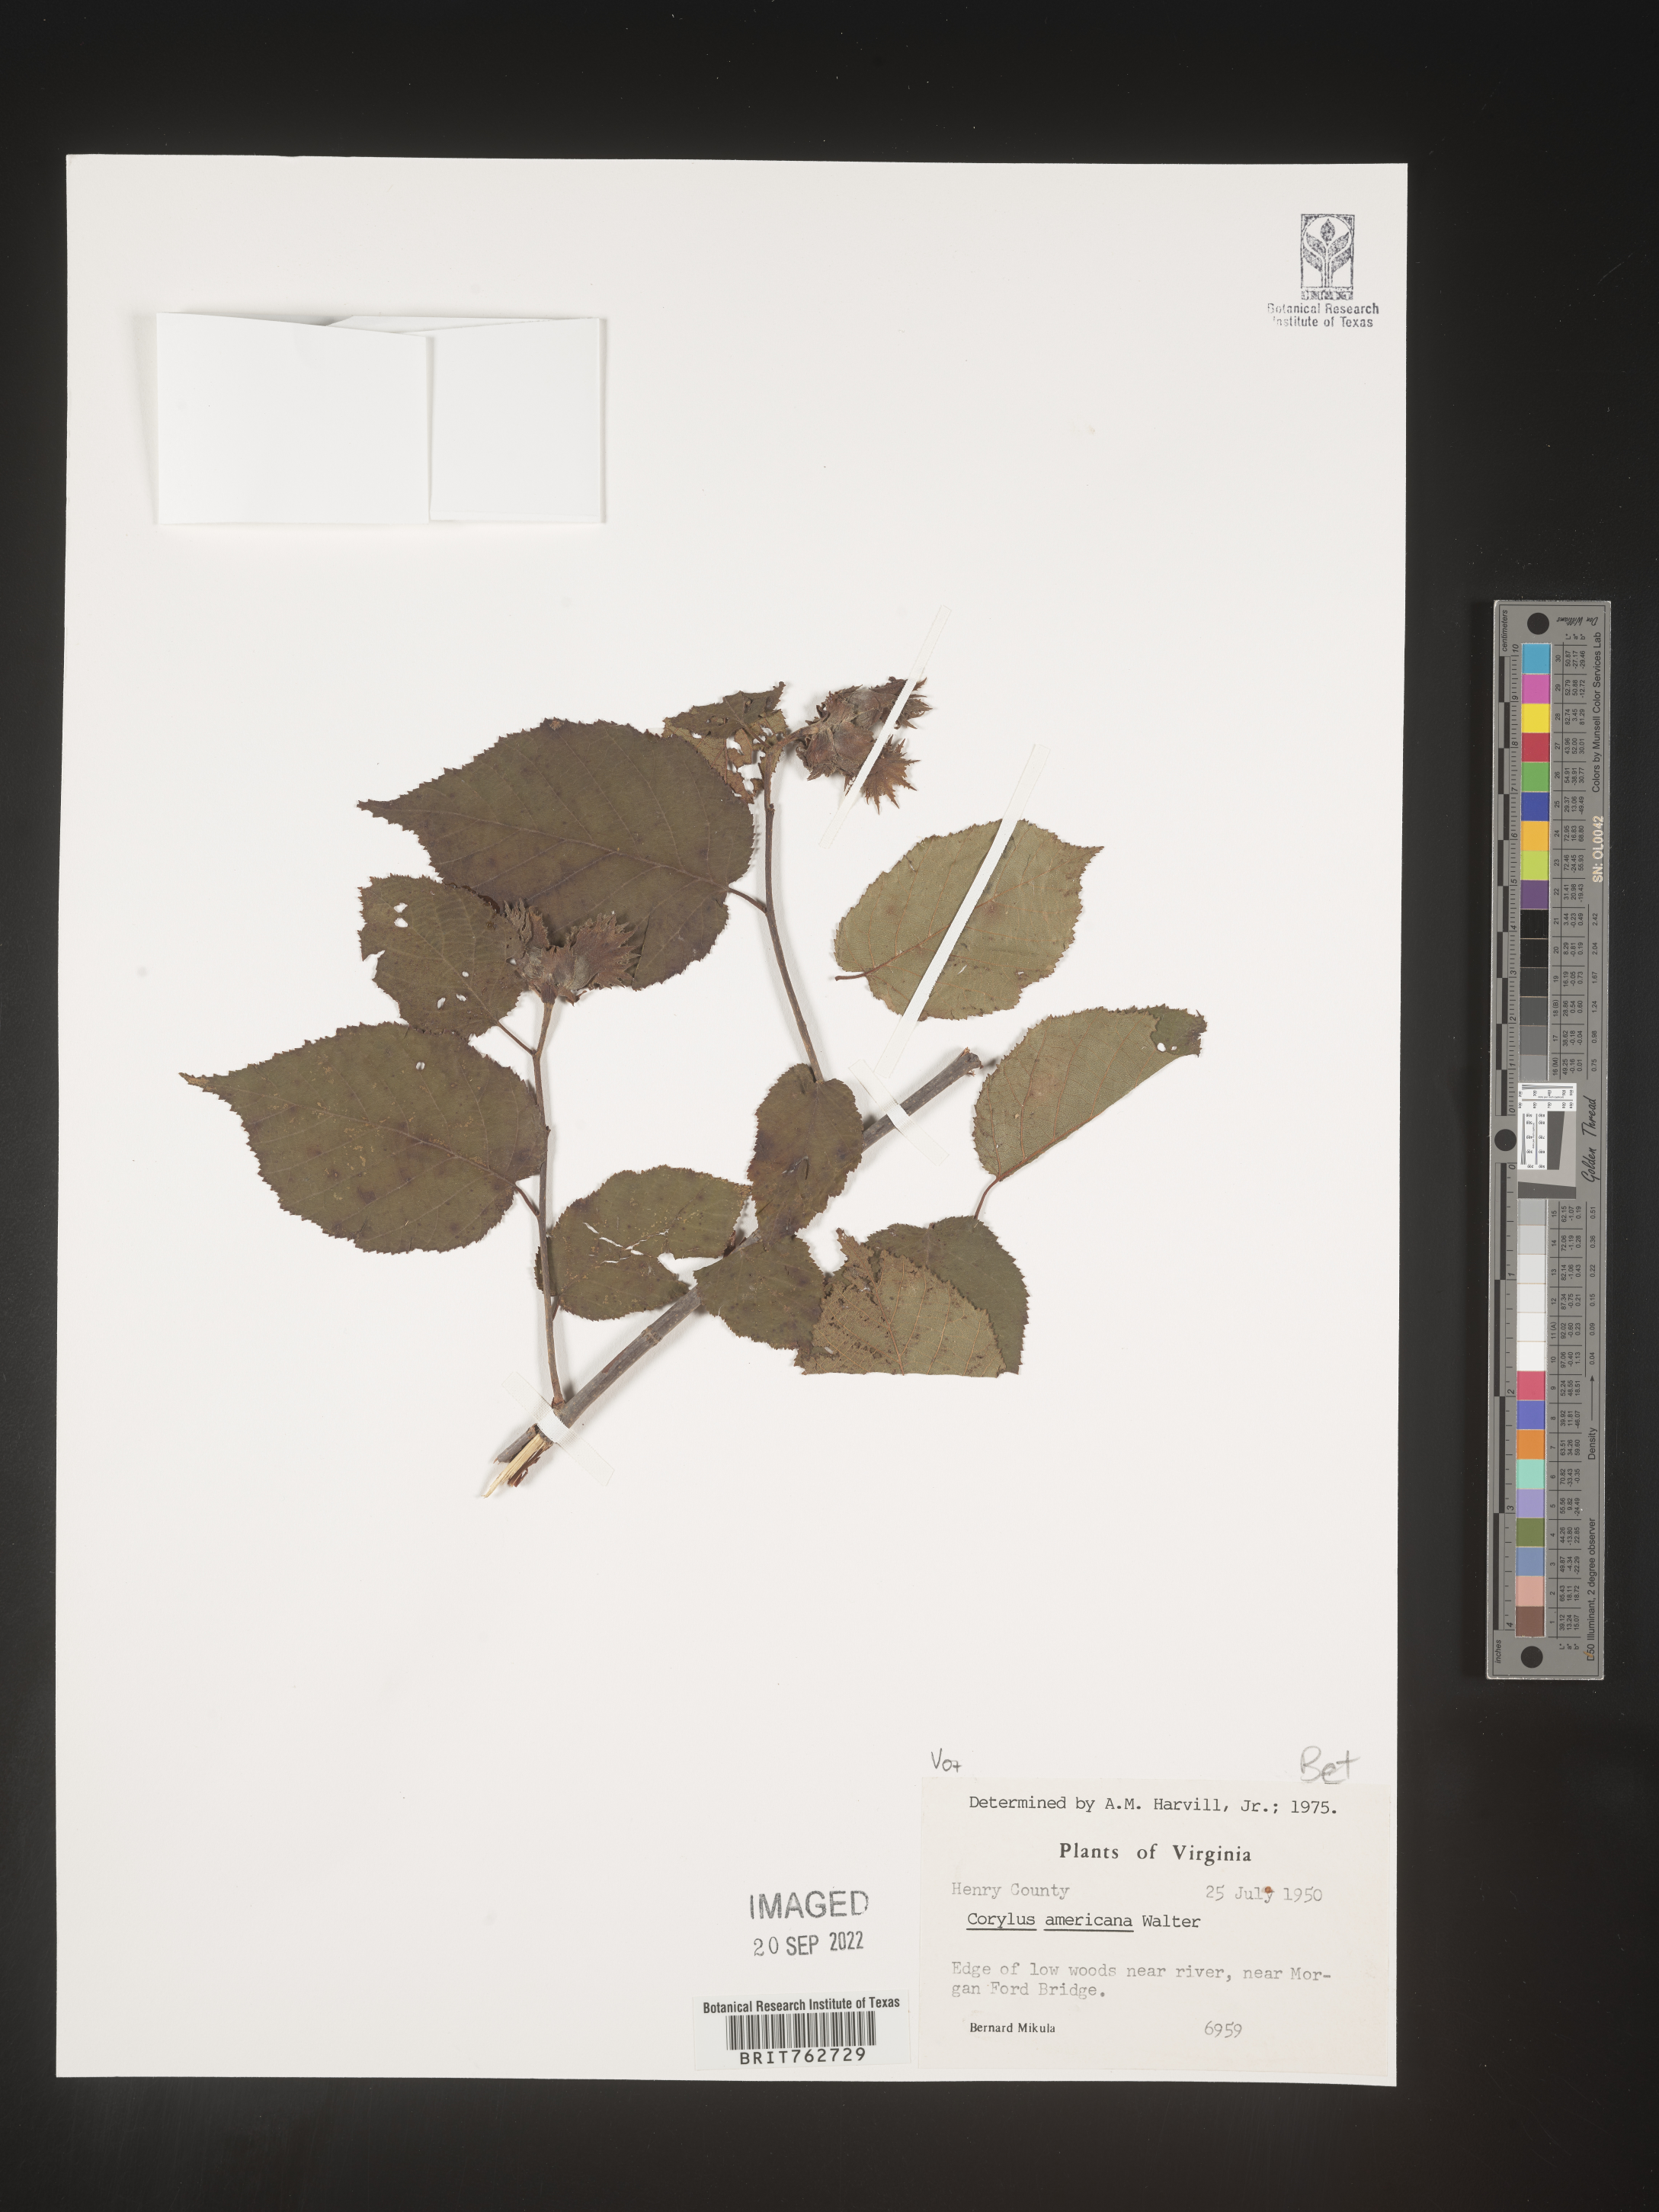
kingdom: Plantae
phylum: Tracheophyta
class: Magnoliopsida
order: Fagales
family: Betulaceae
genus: Corylus
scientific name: Corylus americana
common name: American hazel
